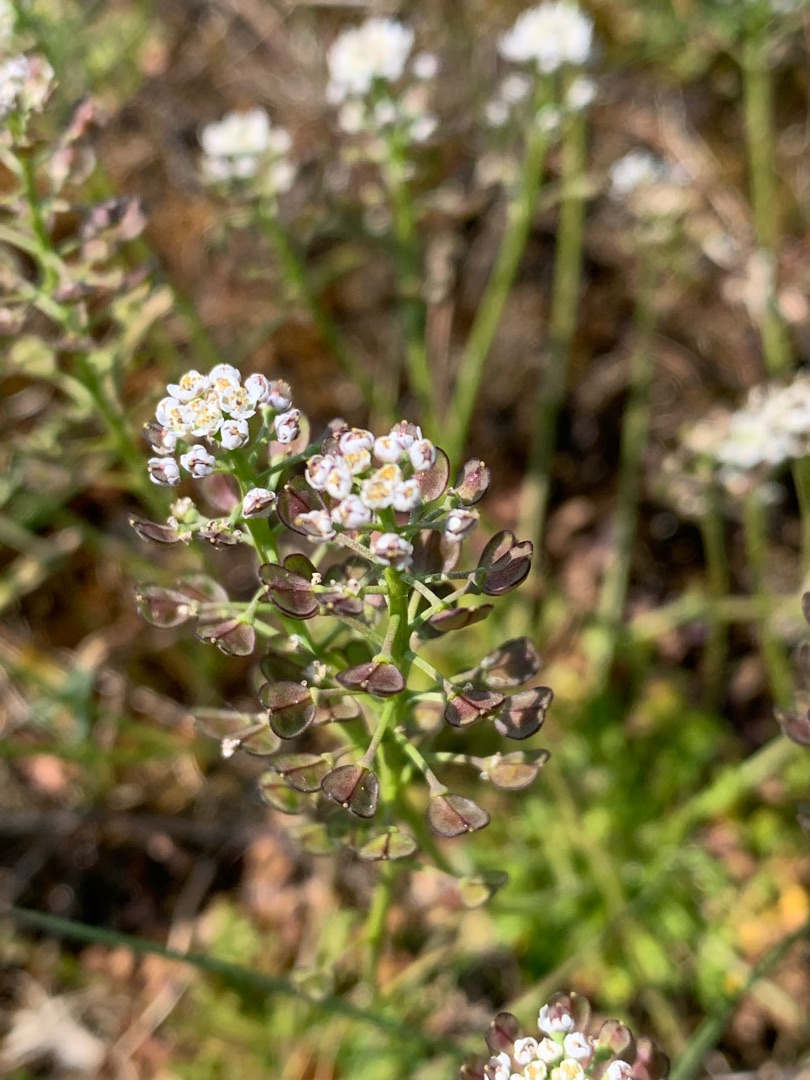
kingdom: Plantae
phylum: Tracheophyta
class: Magnoliopsida
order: Brassicales
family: Brassicaceae
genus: Teesdalia
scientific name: Teesdalia nudicaulis
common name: Flipkrave
